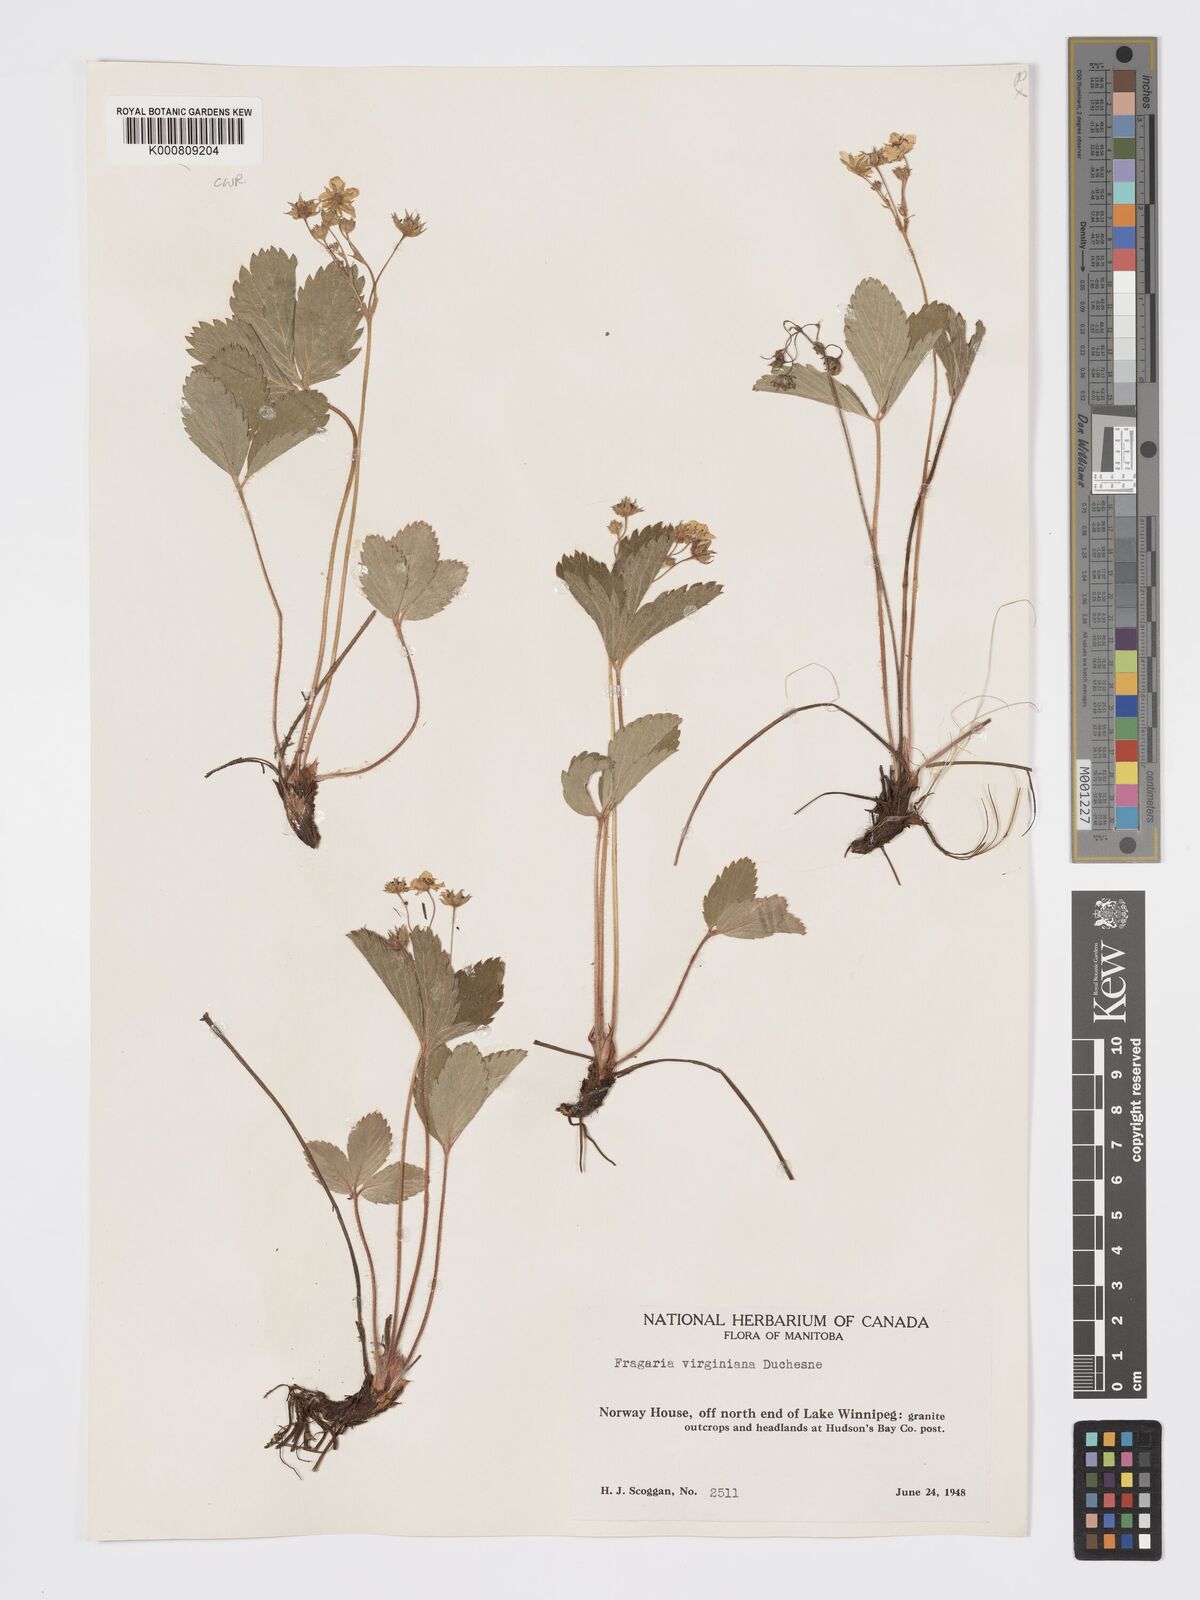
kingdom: Plantae
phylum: Tracheophyta
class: Magnoliopsida
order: Rosales
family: Rosaceae
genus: Fragaria
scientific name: Fragaria virginiana
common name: Thickleaved wild strawberry
